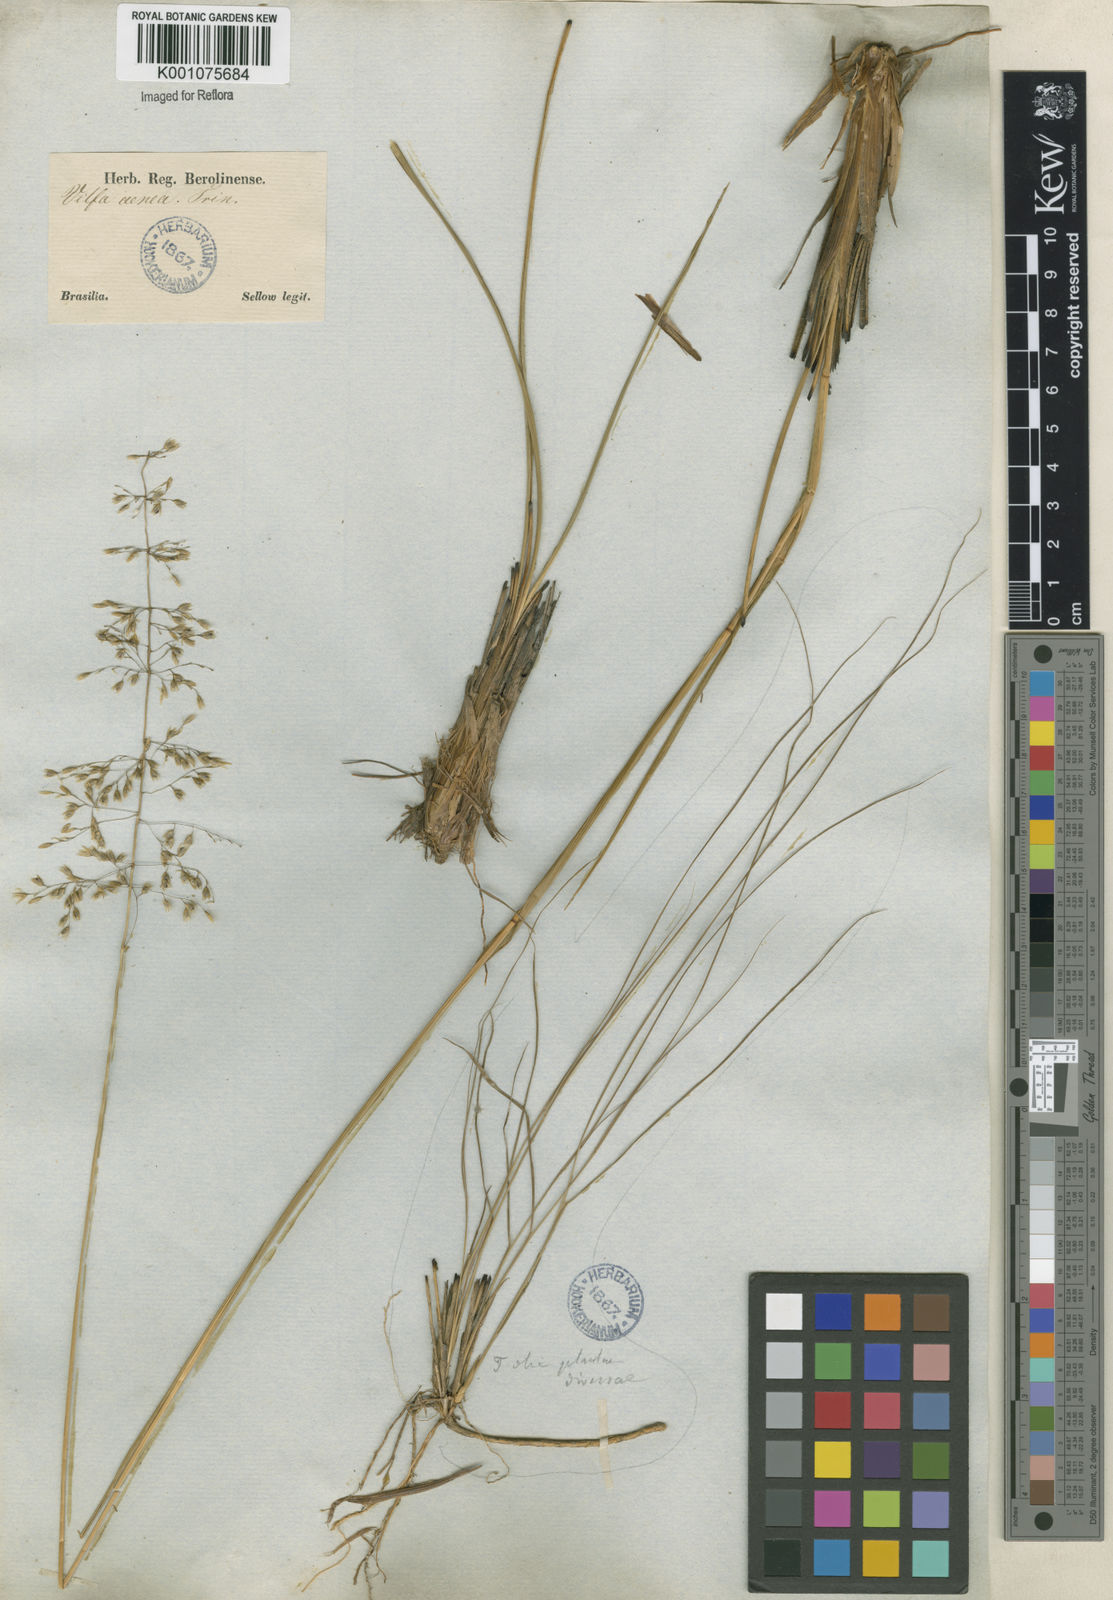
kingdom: Plantae
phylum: Tracheophyta
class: Liliopsida
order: Poales
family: Poaceae
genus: Sporobolus
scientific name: Sporobolus cubensis
